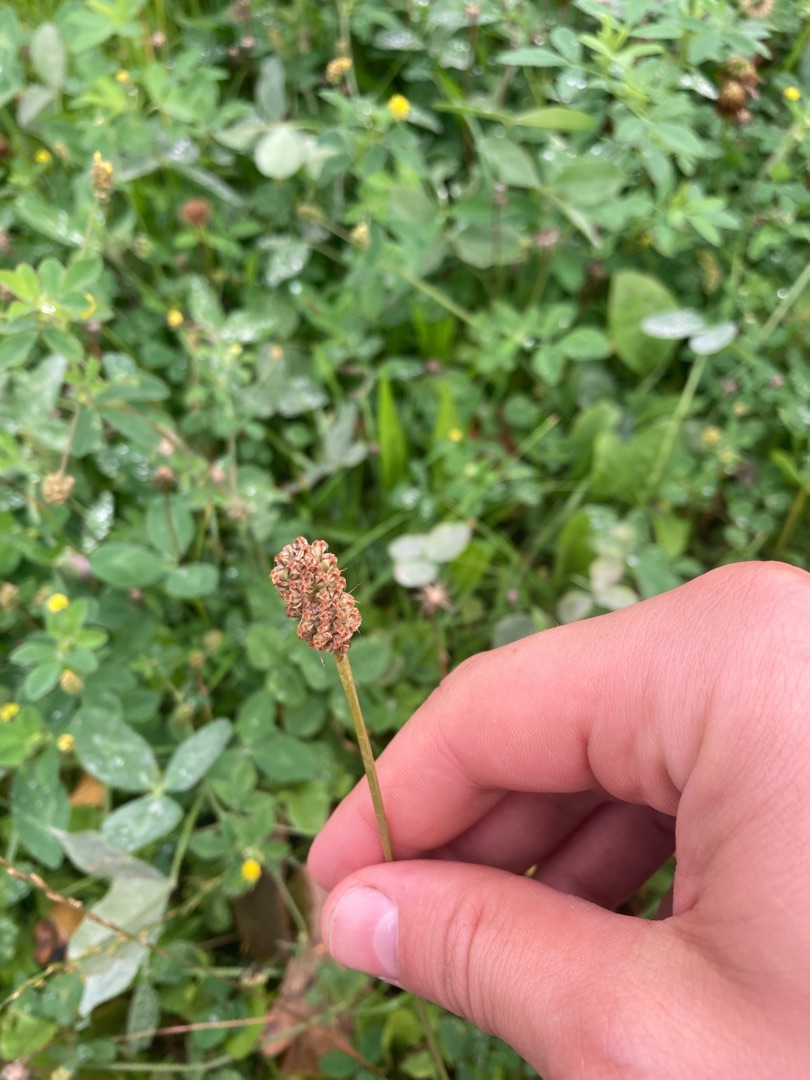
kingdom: Plantae
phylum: Tracheophyta
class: Magnoliopsida
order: Lamiales
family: Plantaginaceae
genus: Plantago
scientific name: Plantago lanceolata
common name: Lancet-vejbred
